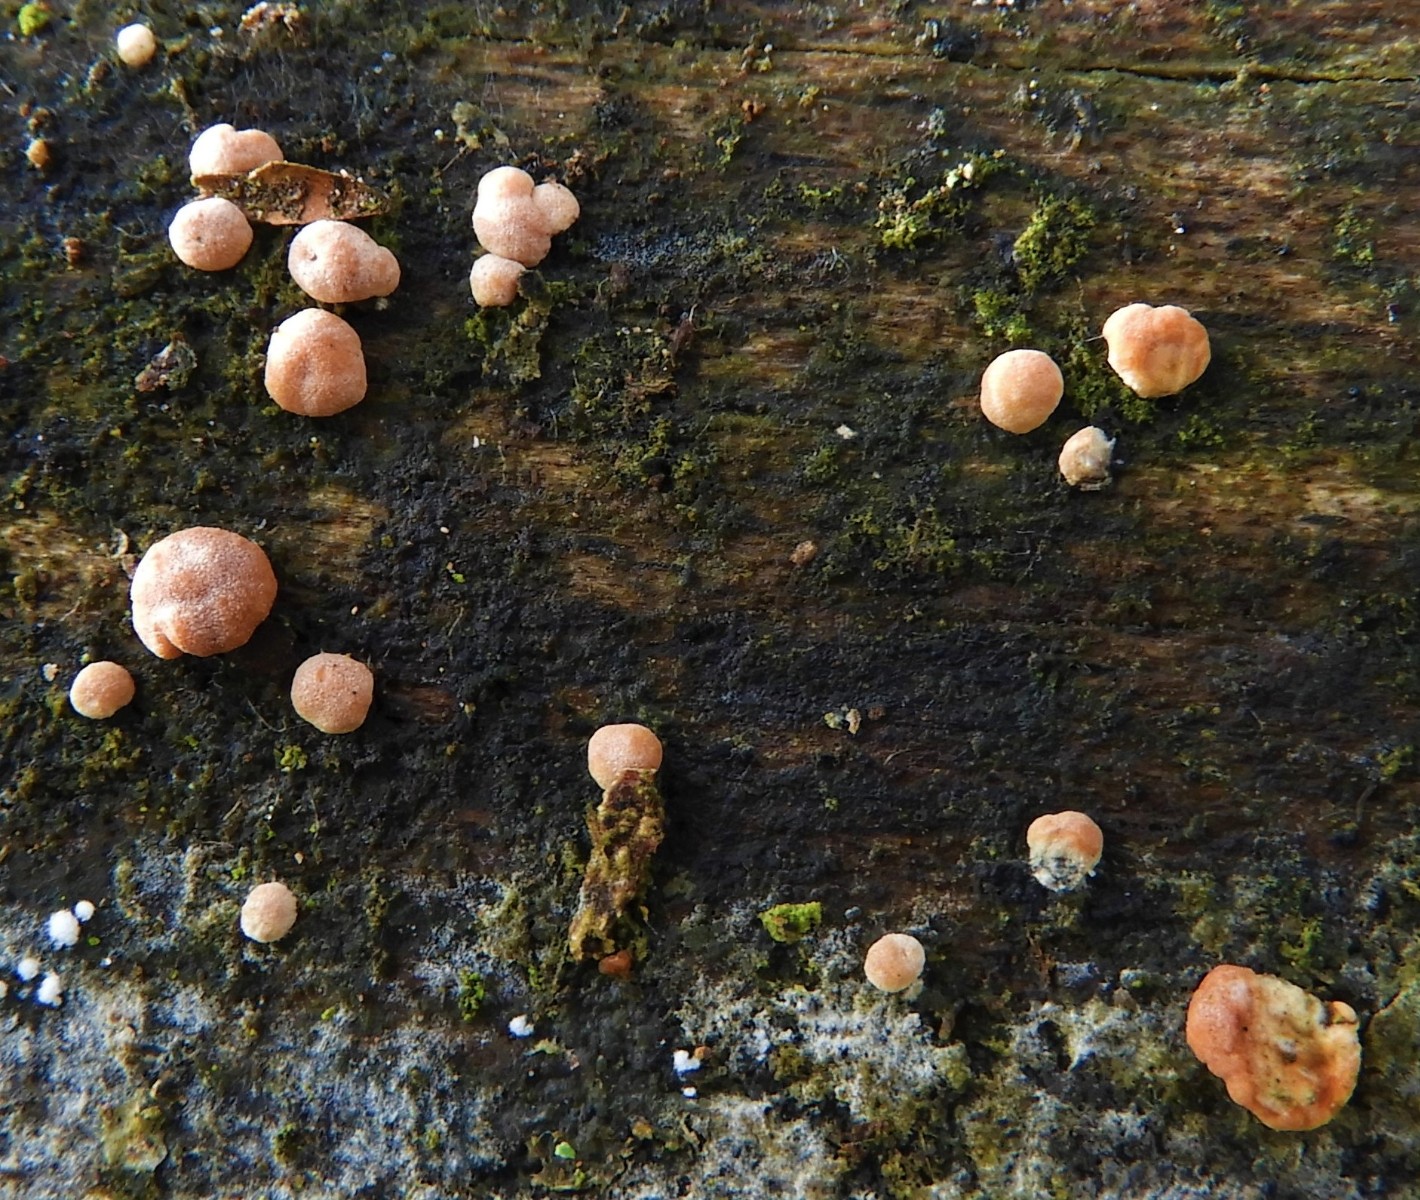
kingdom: Fungi
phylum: Ascomycota
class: Sordariomycetes
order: Hypocreales
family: Hypocreaceae
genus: Trichoderma
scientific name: Trichoderma europaeum
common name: rosabrun kødkerne
